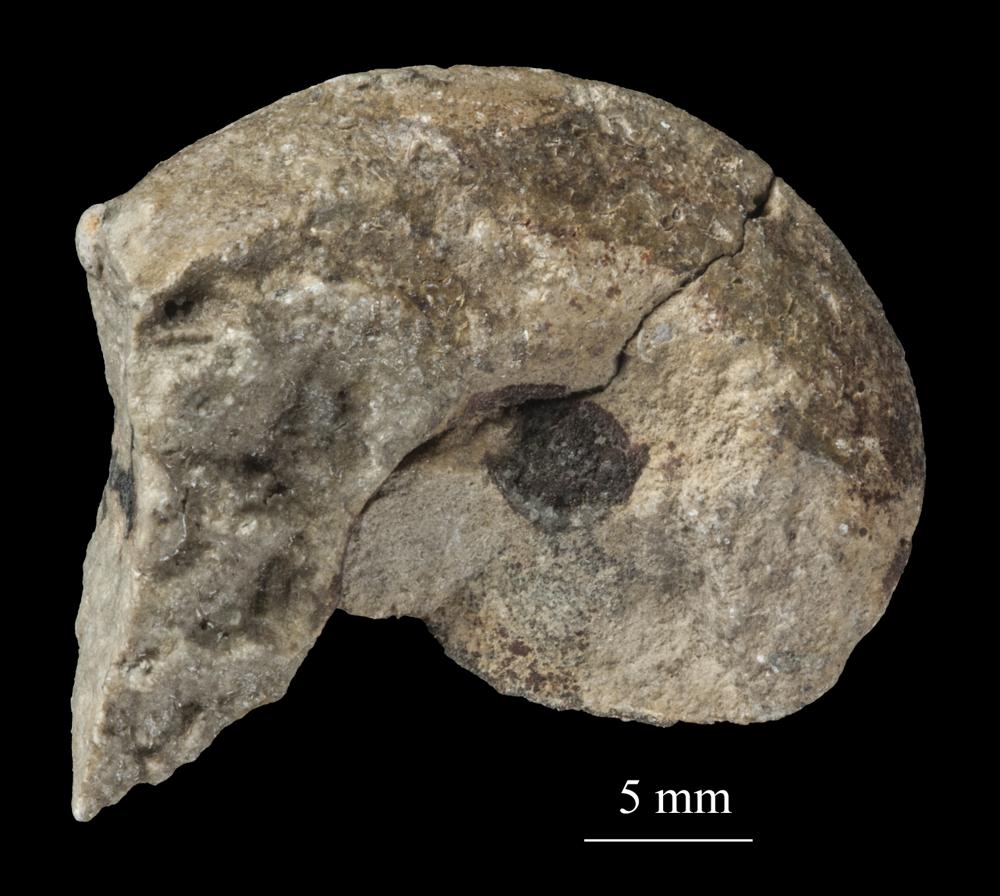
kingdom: Animalia
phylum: Mollusca
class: Gastropoda
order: Neogastropoda
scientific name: Neogastropoda
